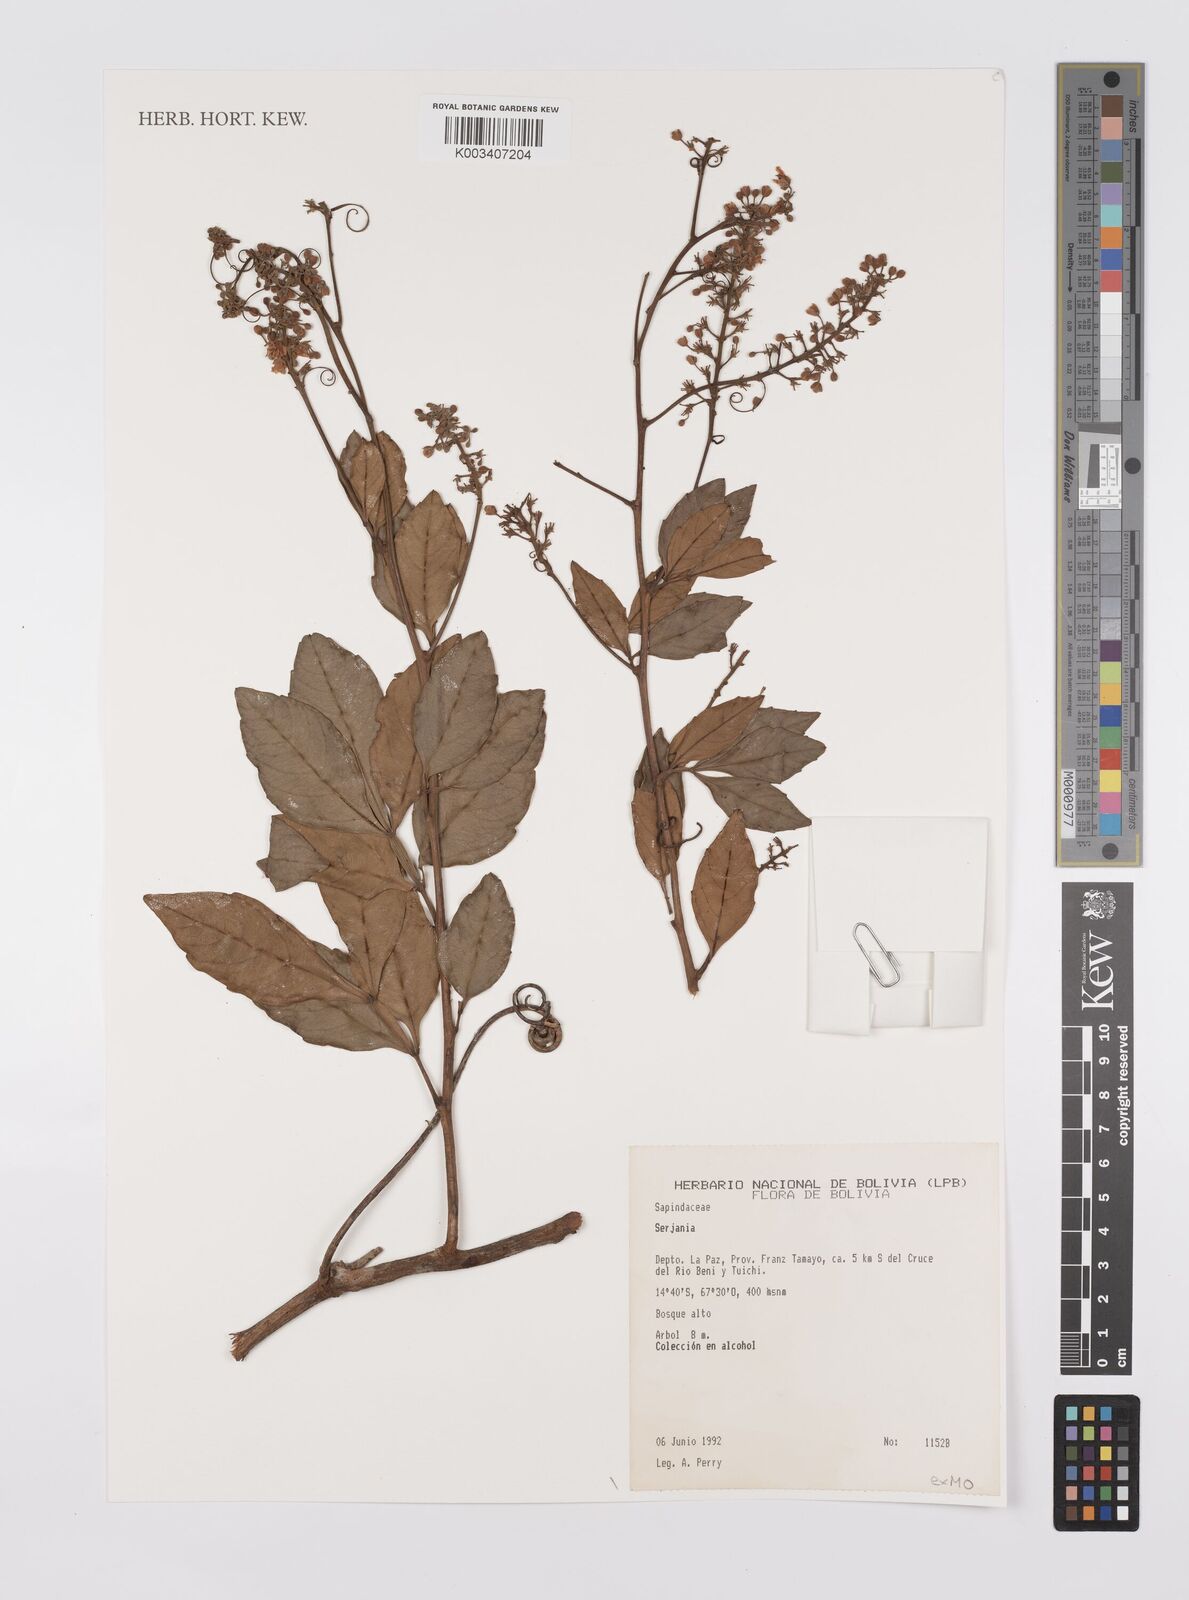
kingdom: Plantae
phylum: Tracheophyta
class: Magnoliopsida
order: Sapindales
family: Sapindaceae
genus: Serjania
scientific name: Serjania
